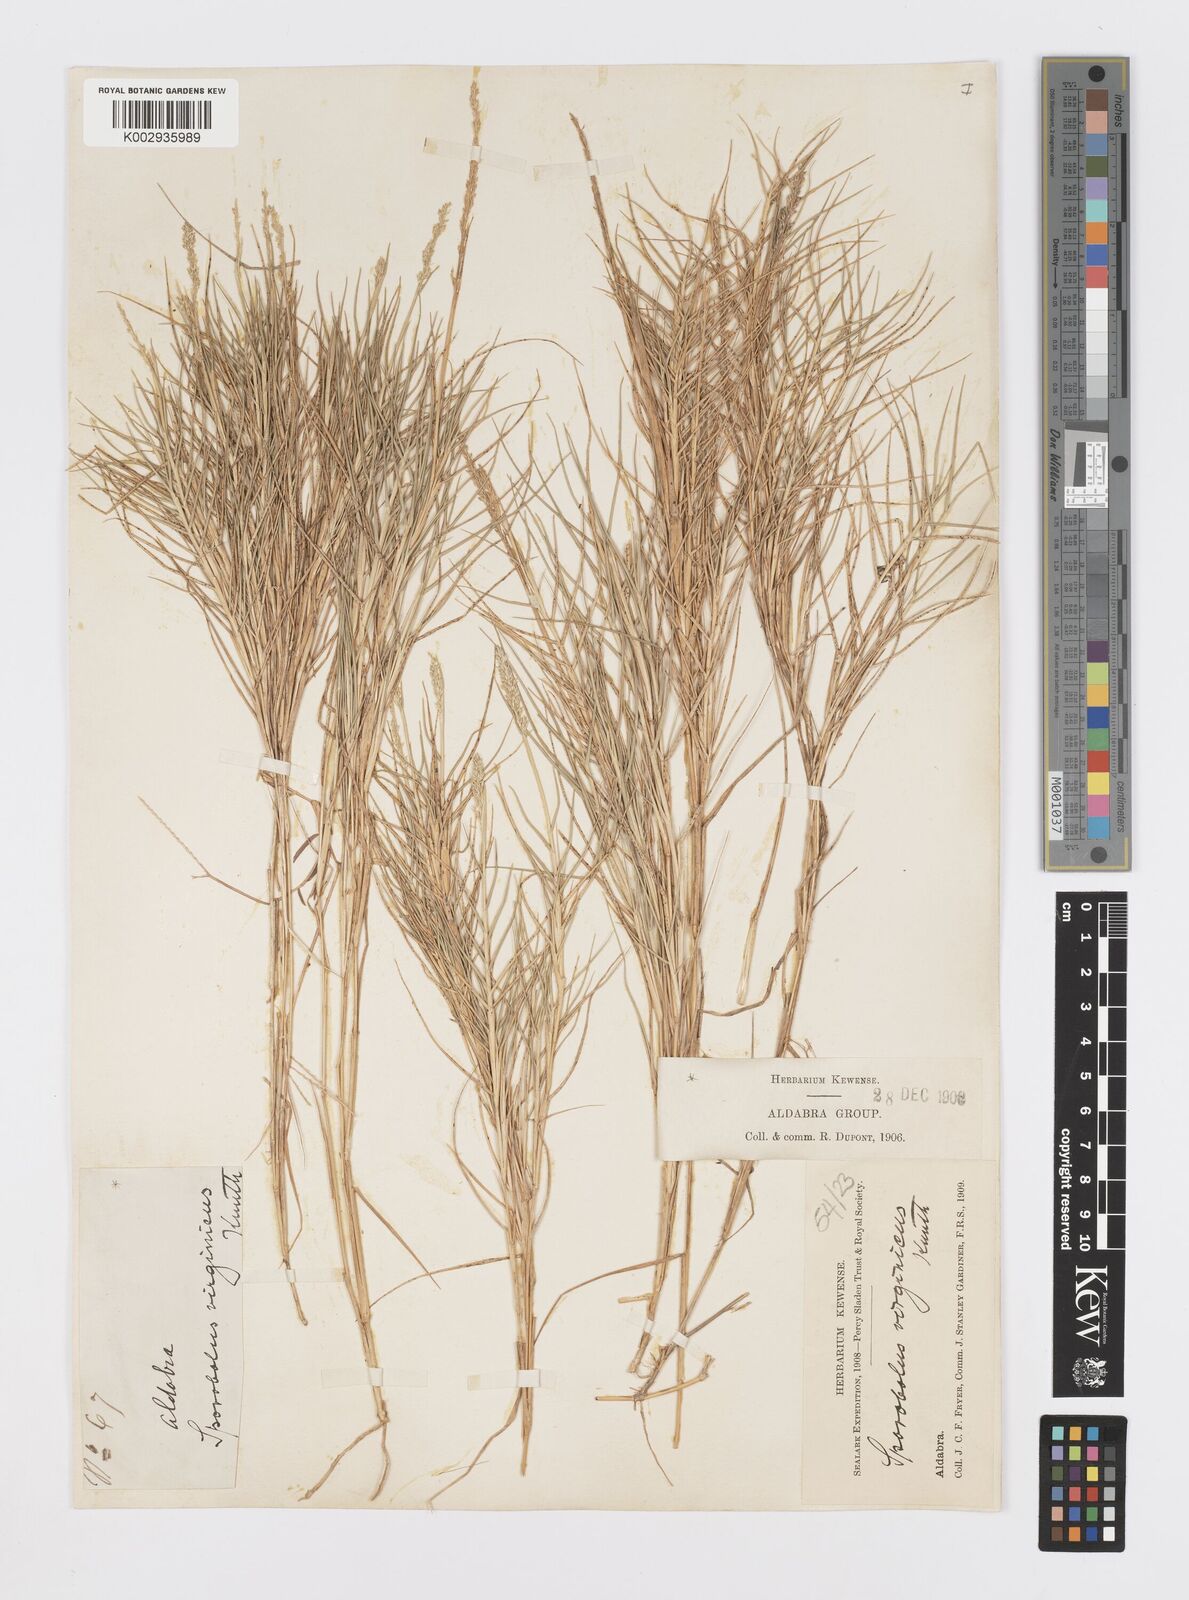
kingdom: Plantae
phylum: Tracheophyta
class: Liliopsida
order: Poales
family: Poaceae
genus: Sporobolus
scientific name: Sporobolus virginicus
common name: Beach dropseed
